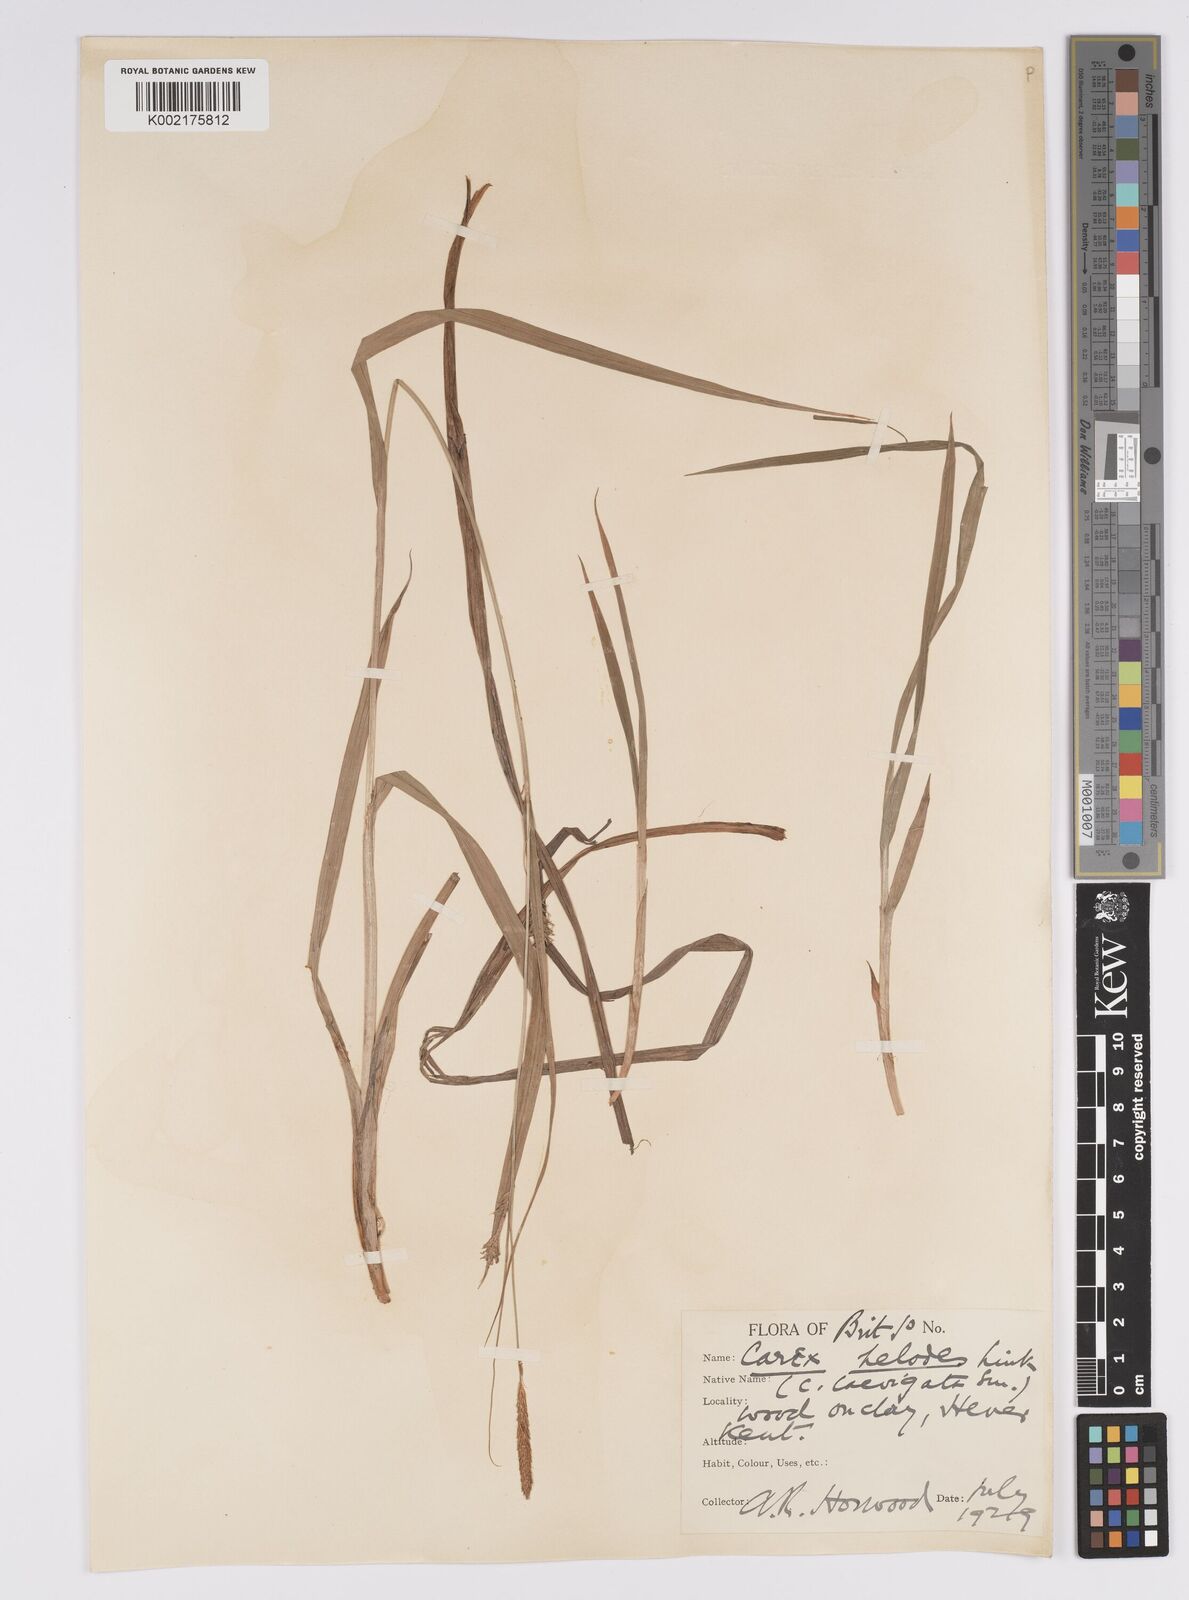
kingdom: Plantae
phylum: Tracheophyta
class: Liliopsida
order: Poales
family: Cyperaceae
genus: Carex
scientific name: Carex laevigata
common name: Smooth-stalked sedge
